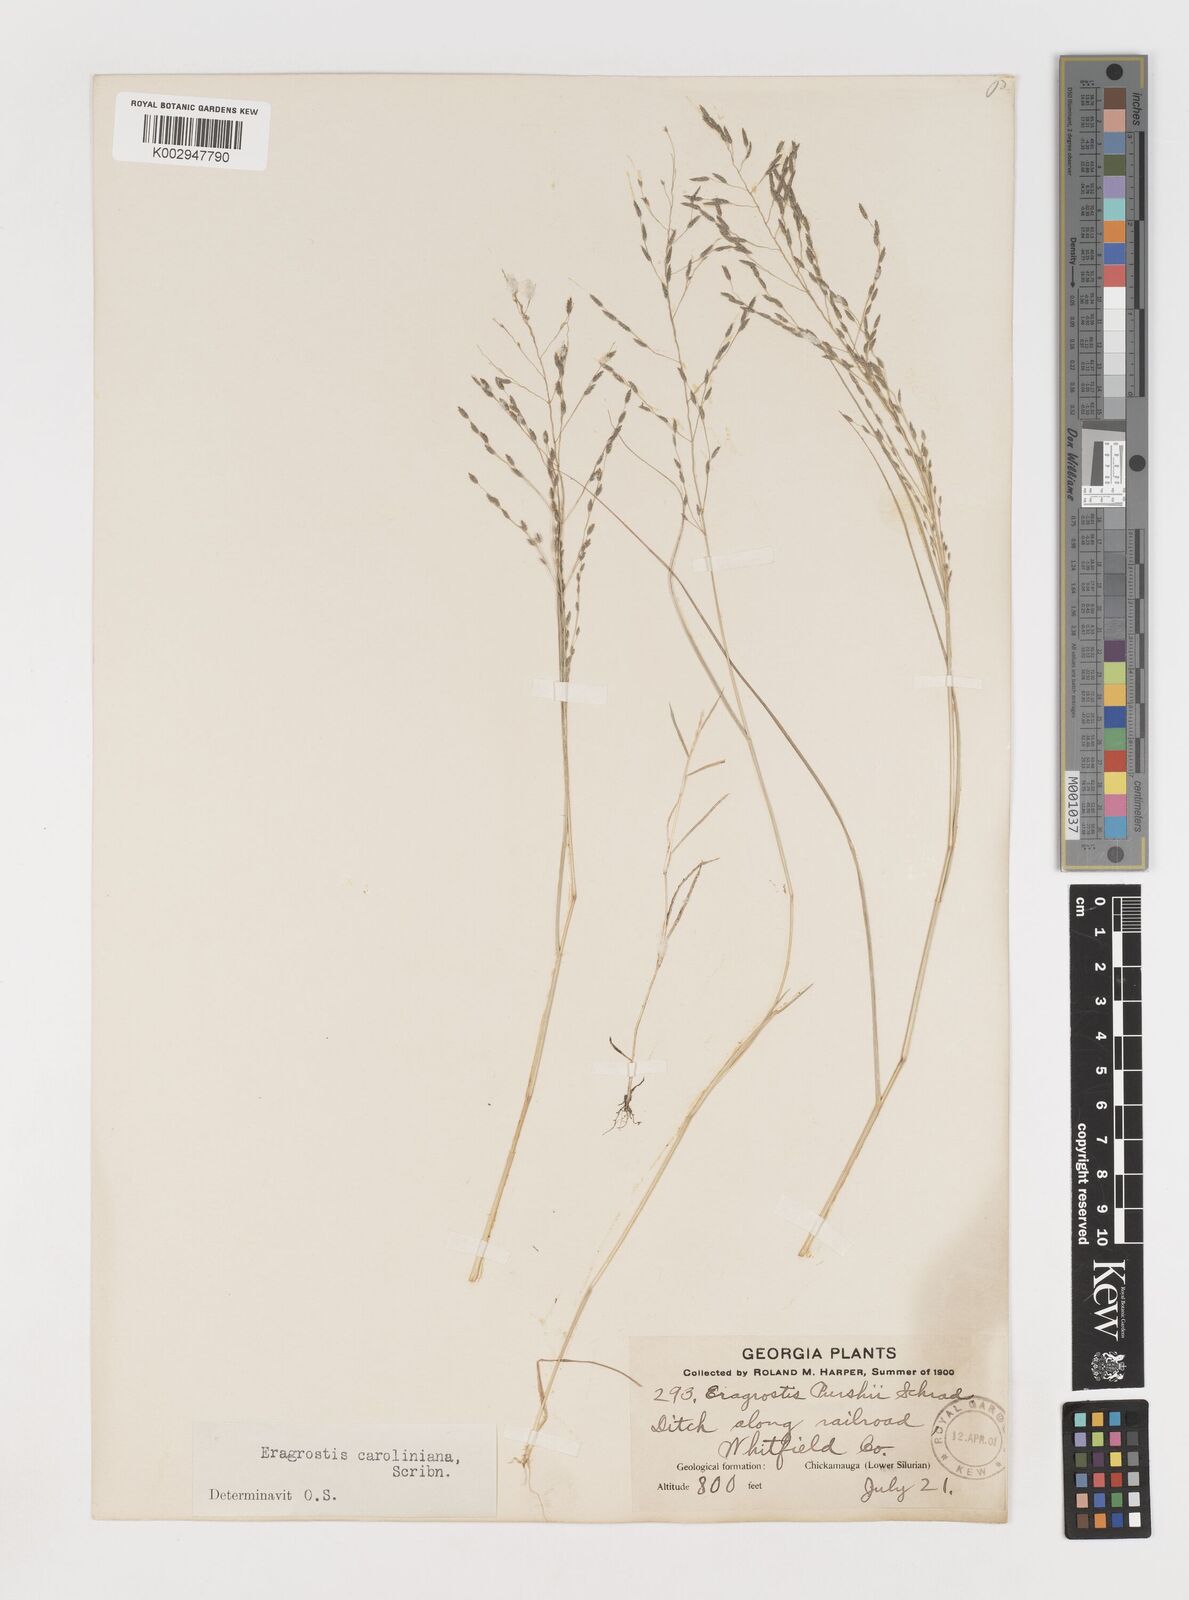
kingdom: Plantae
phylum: Tracheophyta
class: Liliopsida
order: Poales
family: Poaceae
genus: Eragrostis
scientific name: Eragrostis pectinacea
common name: Tufted lovegrass
